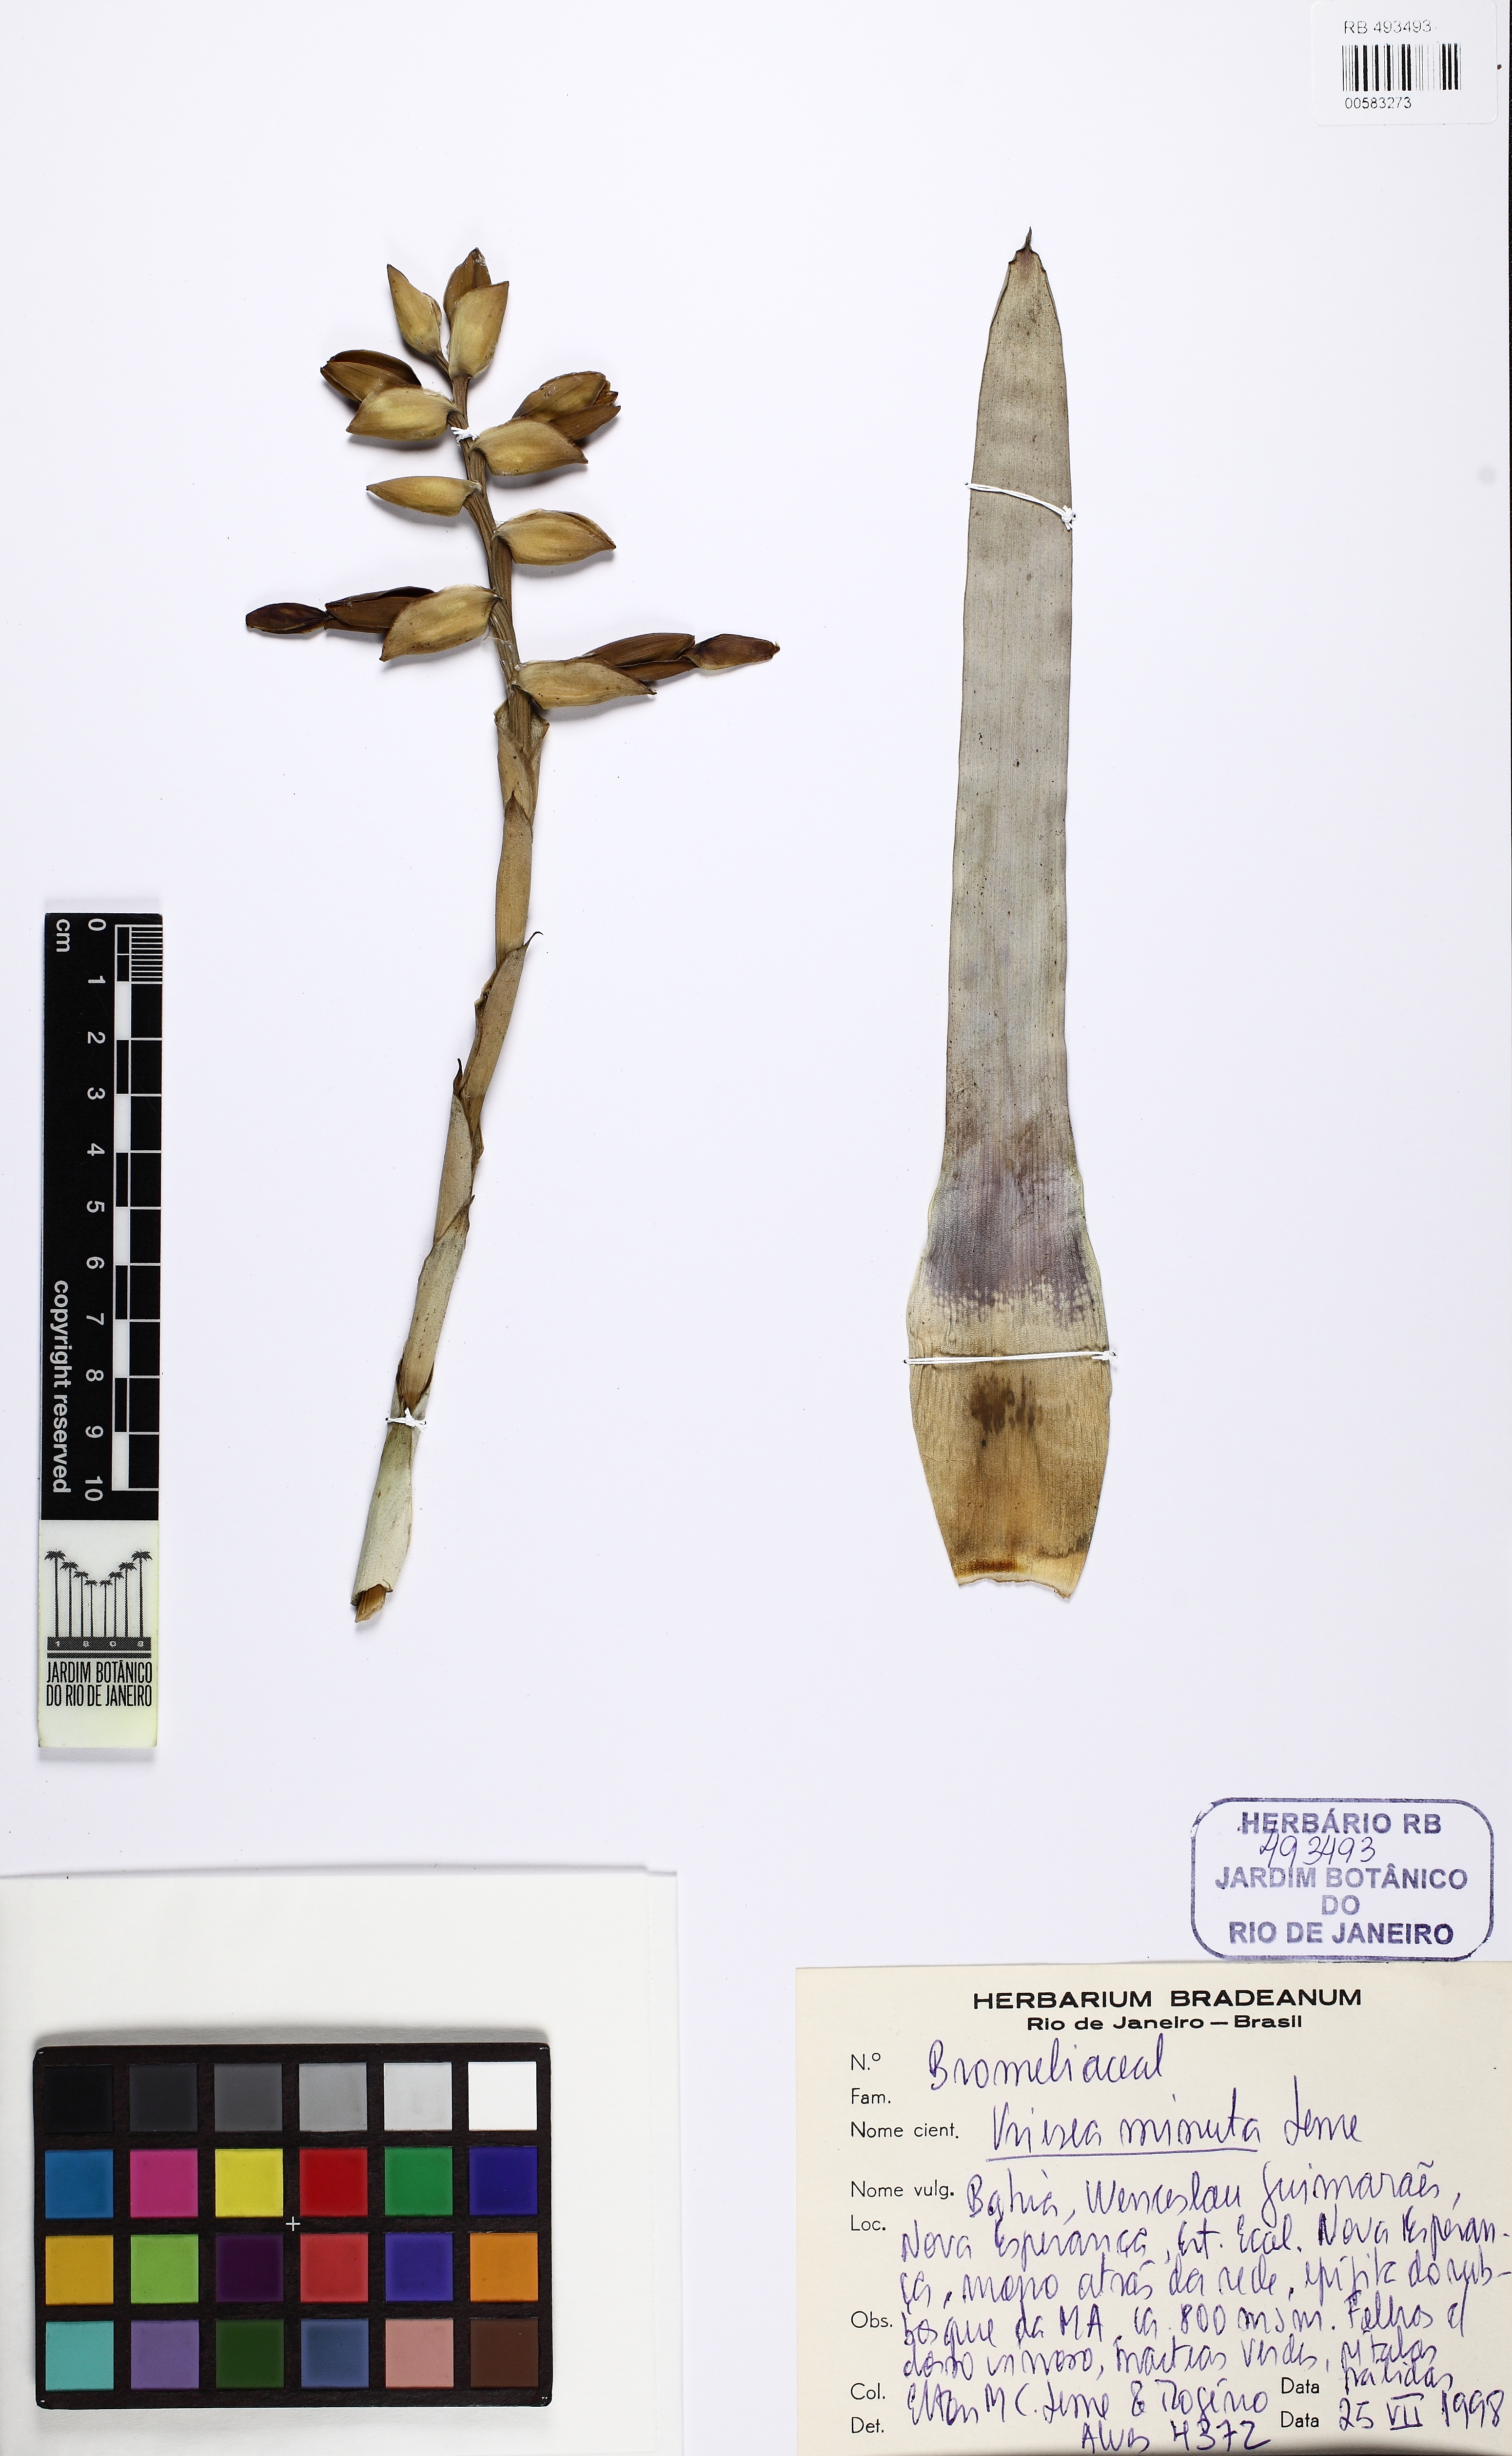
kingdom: Plantae
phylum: Tracheophyta
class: Liliopsida
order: Poales
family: Bromeliaceae
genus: Vriesea
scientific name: Vriesea minuta
